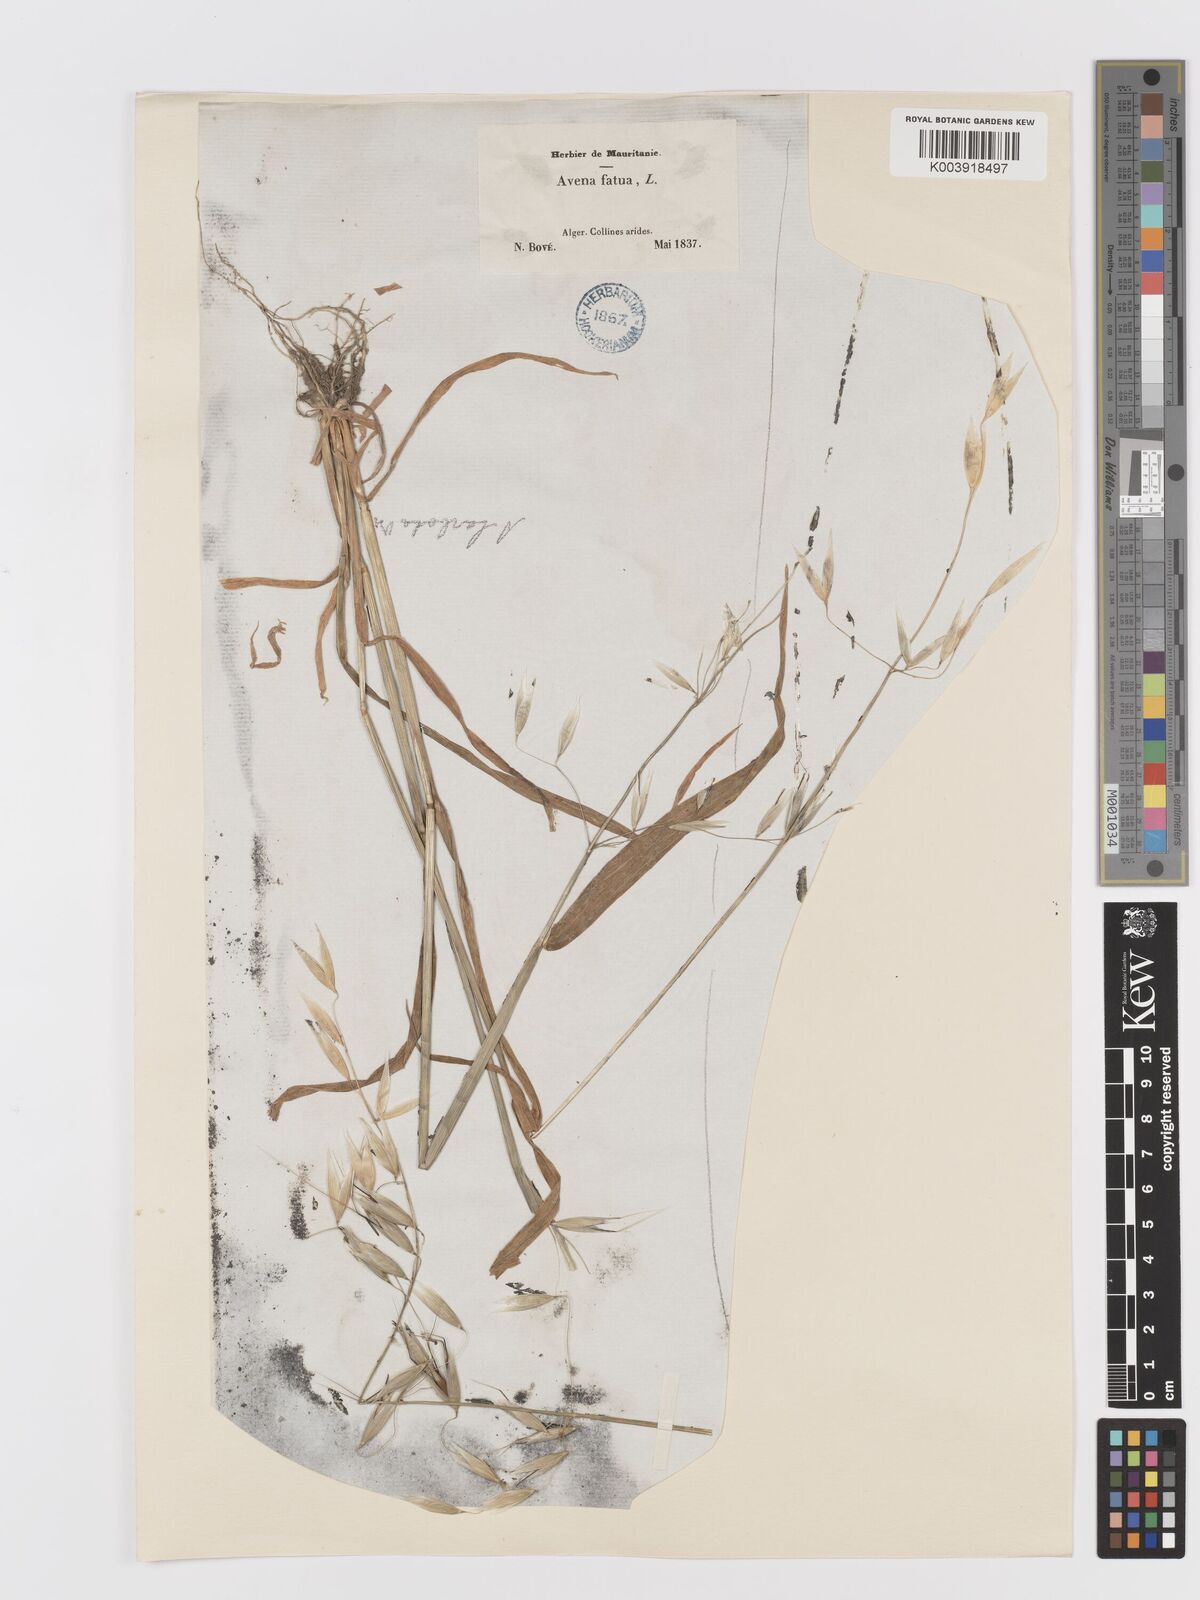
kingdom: Plantae
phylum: Tracheophyta
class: Liliopsida
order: Poales
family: Poaceae
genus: Avena
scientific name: Avena sterilis
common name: Animated oat
